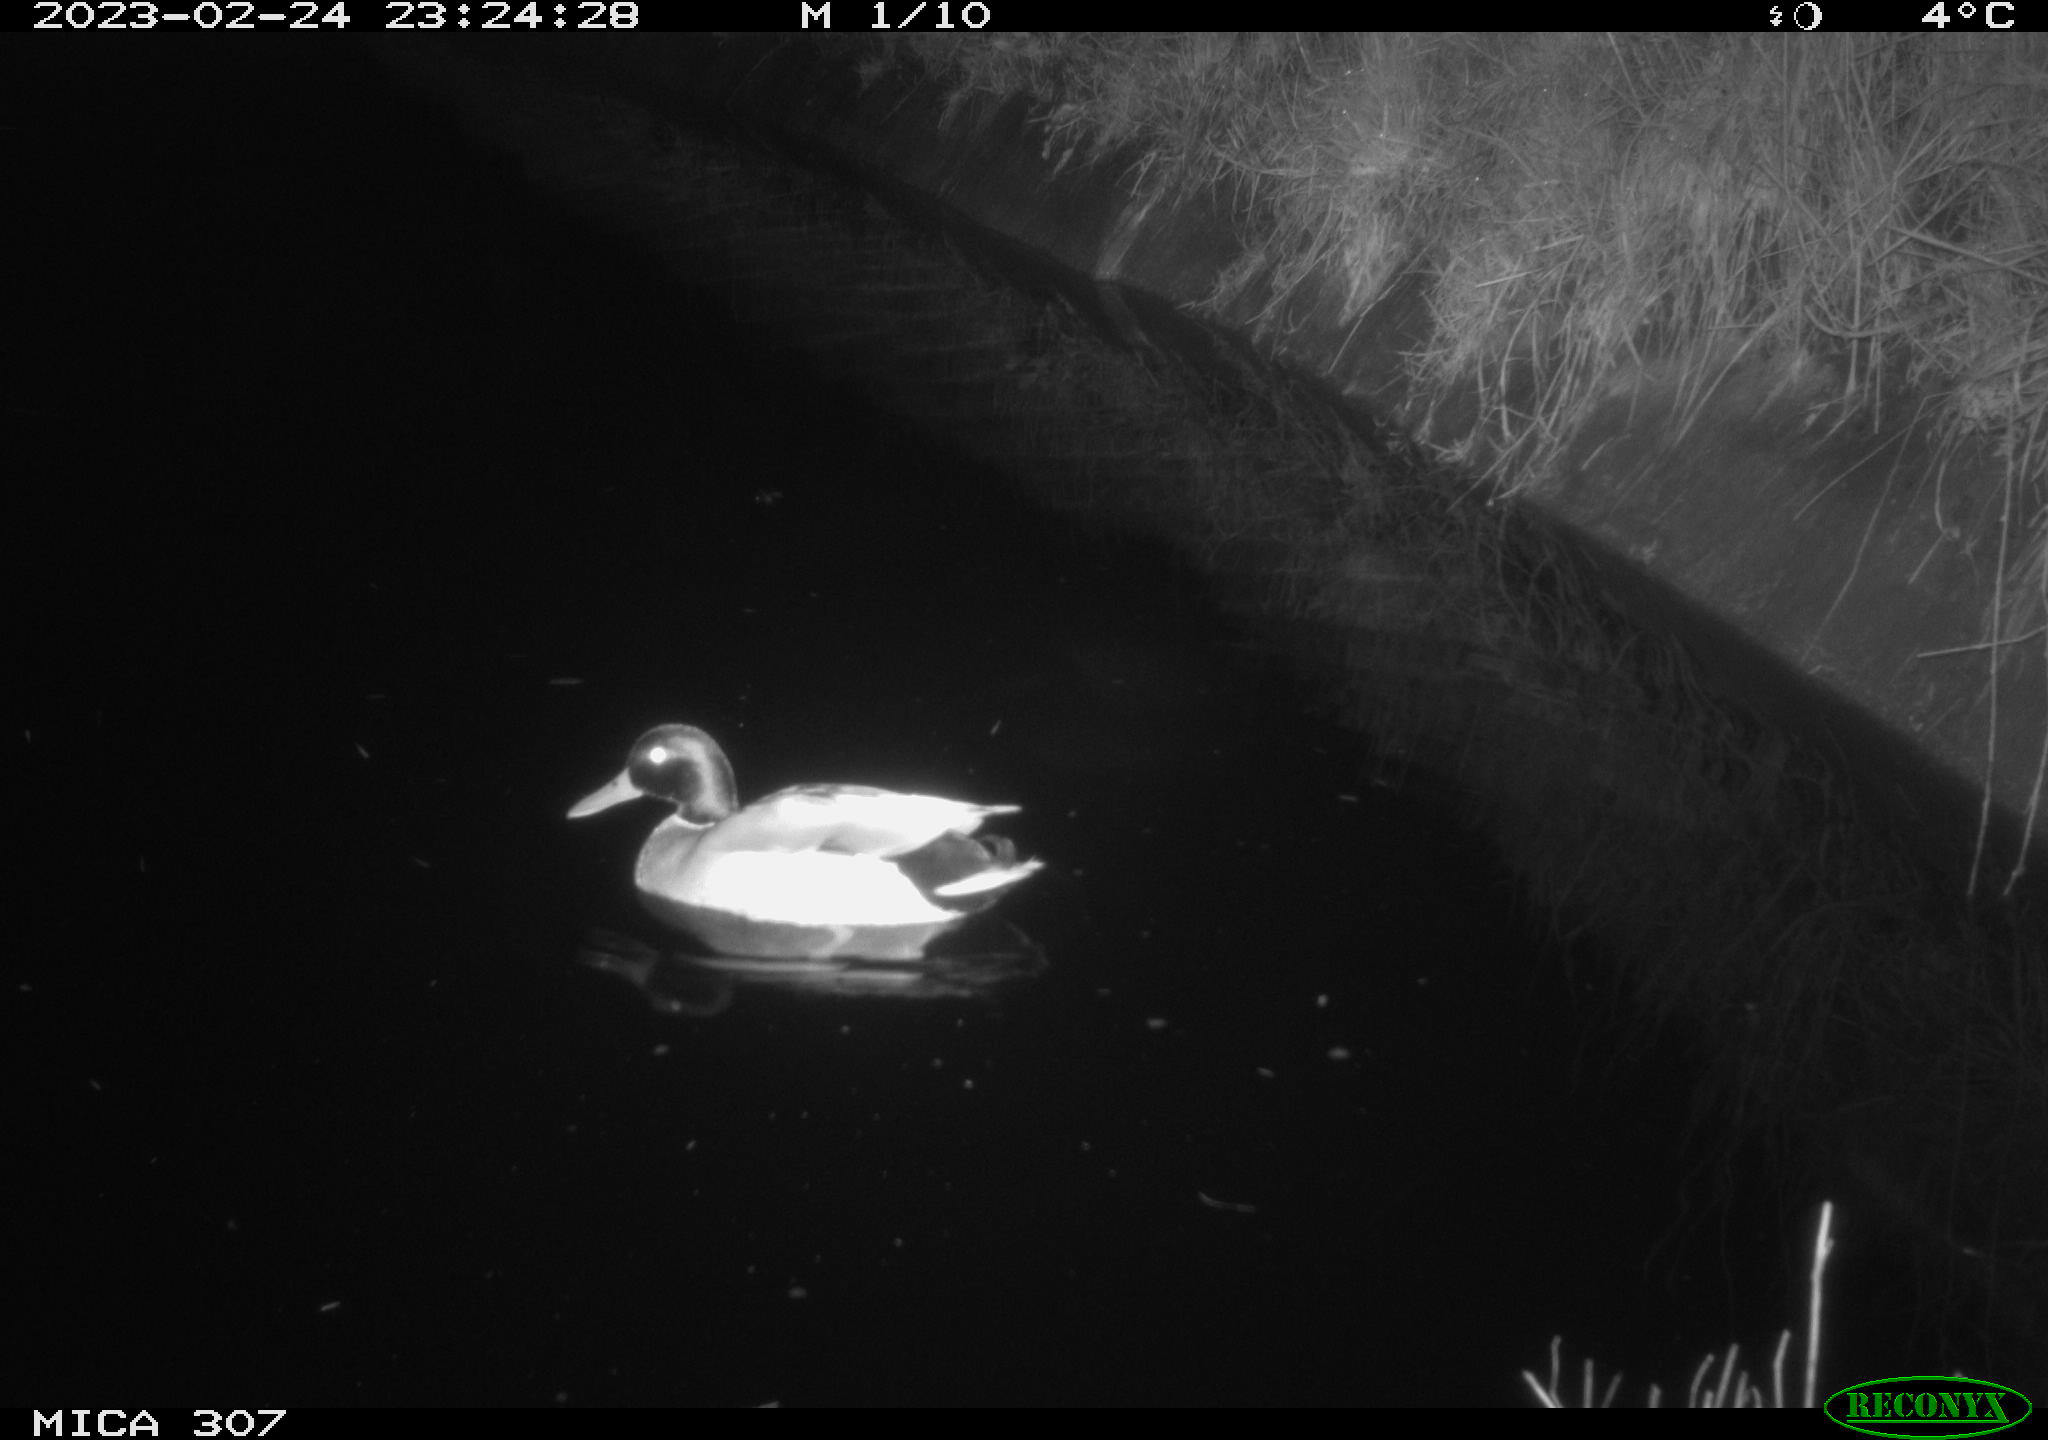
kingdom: Animalia
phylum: Chordata
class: Aves
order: Anseriformes
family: Anatidae
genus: Anas
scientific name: Anas
